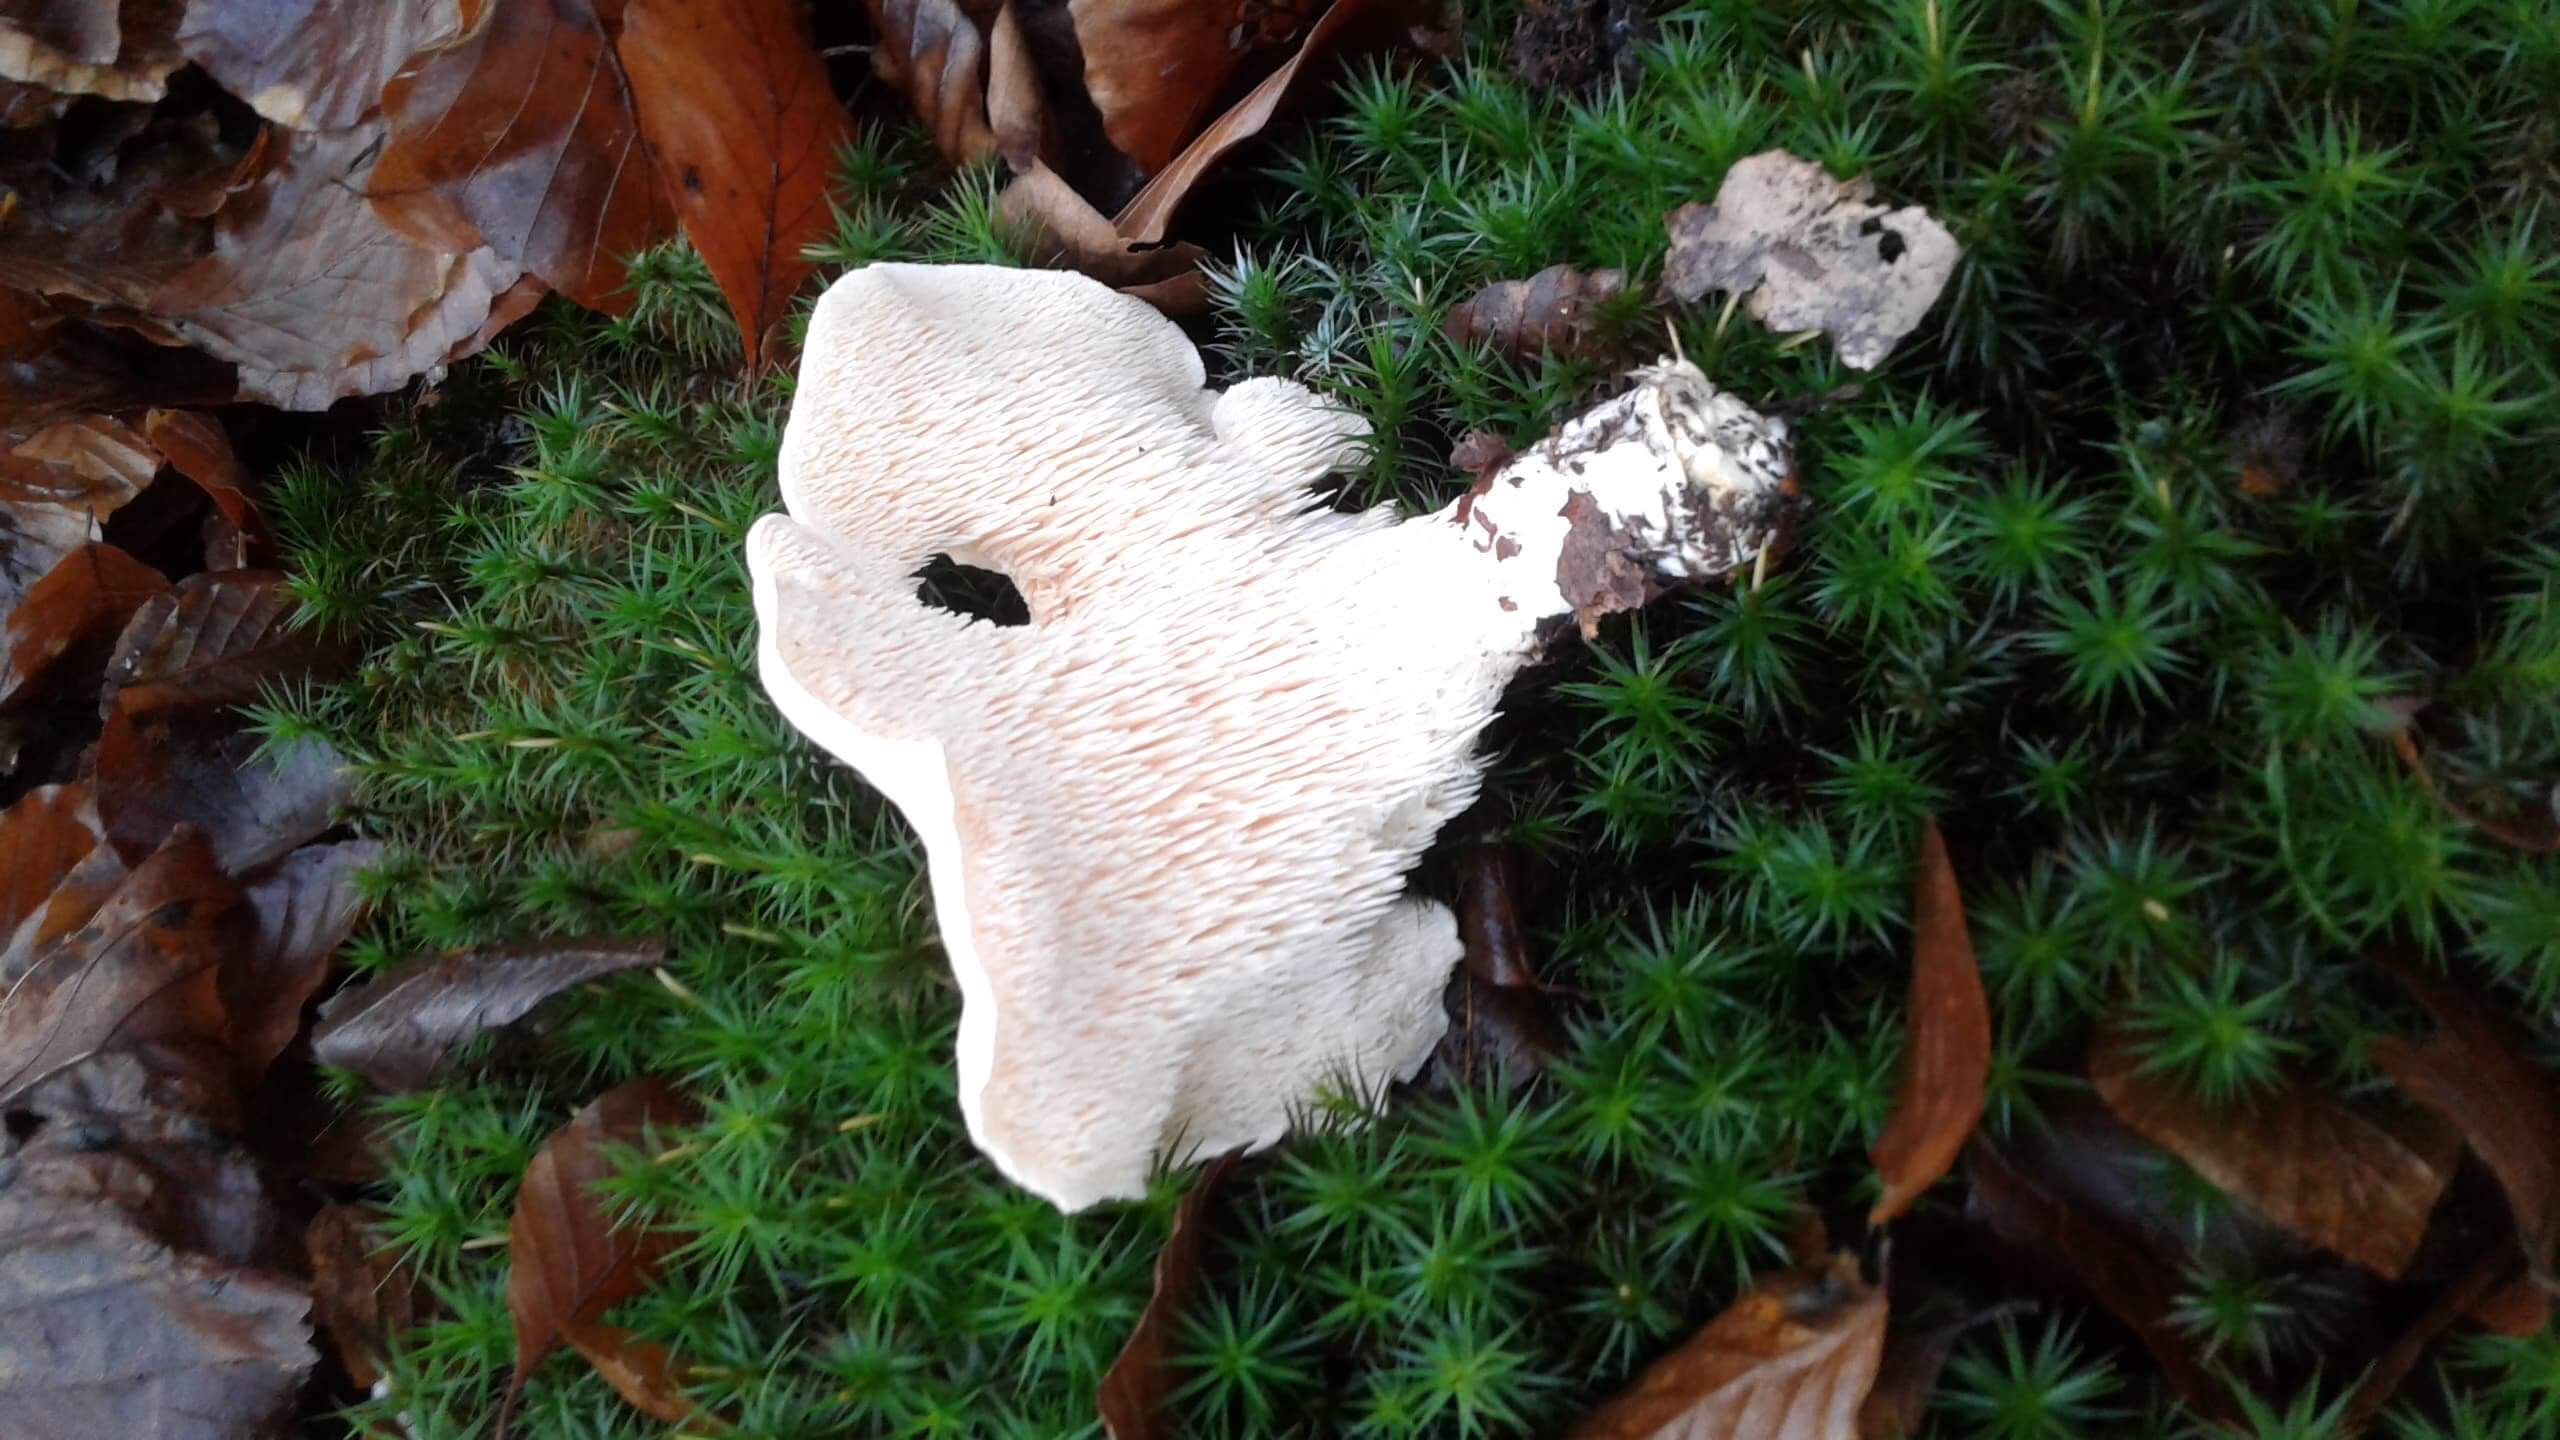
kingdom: Fungi
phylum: Basidiomycota
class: Agaricomycetes
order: Cantharellales
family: Hydnaceae
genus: Hydnum
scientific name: Hydnum repandum
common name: almindelig pigsvamp
